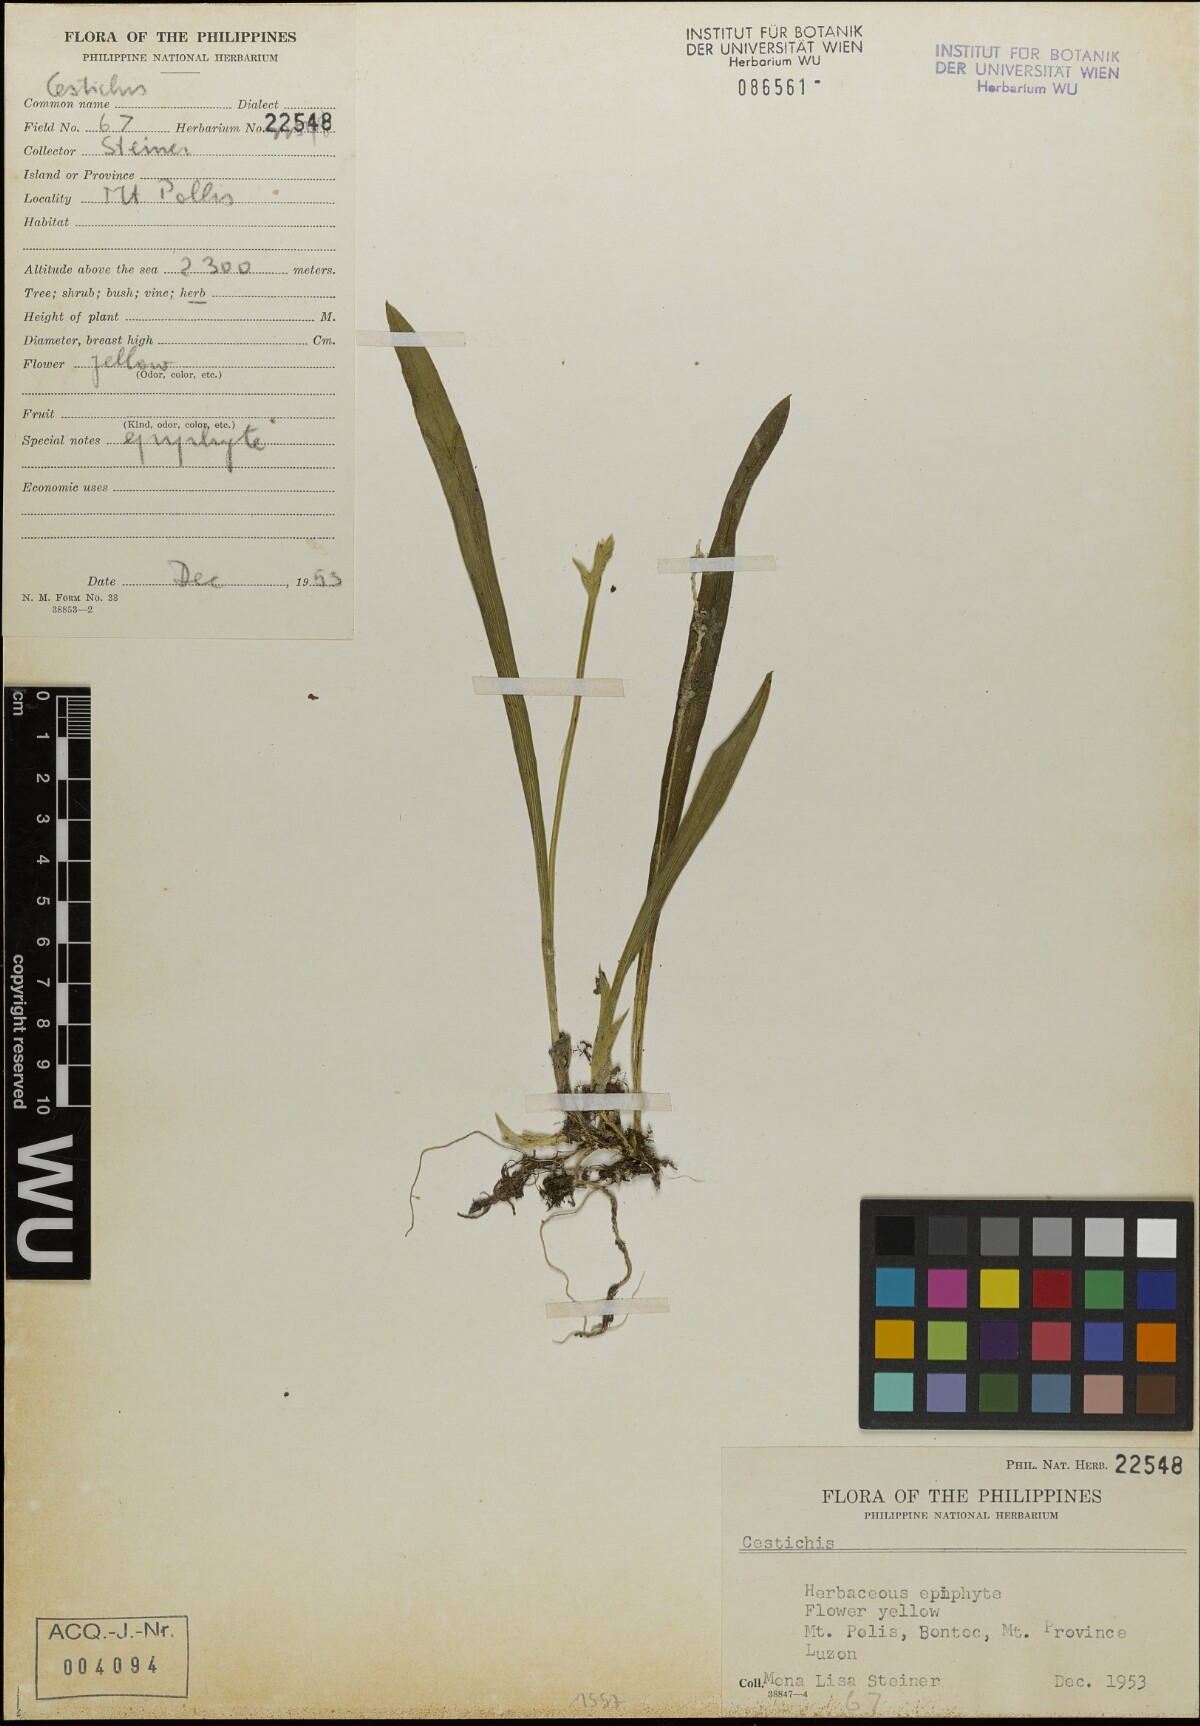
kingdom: Plantae
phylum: Tracheophyta
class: Liliopsida
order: Asparagales
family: Orchidaceae
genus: Liparis
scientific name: Liparis
